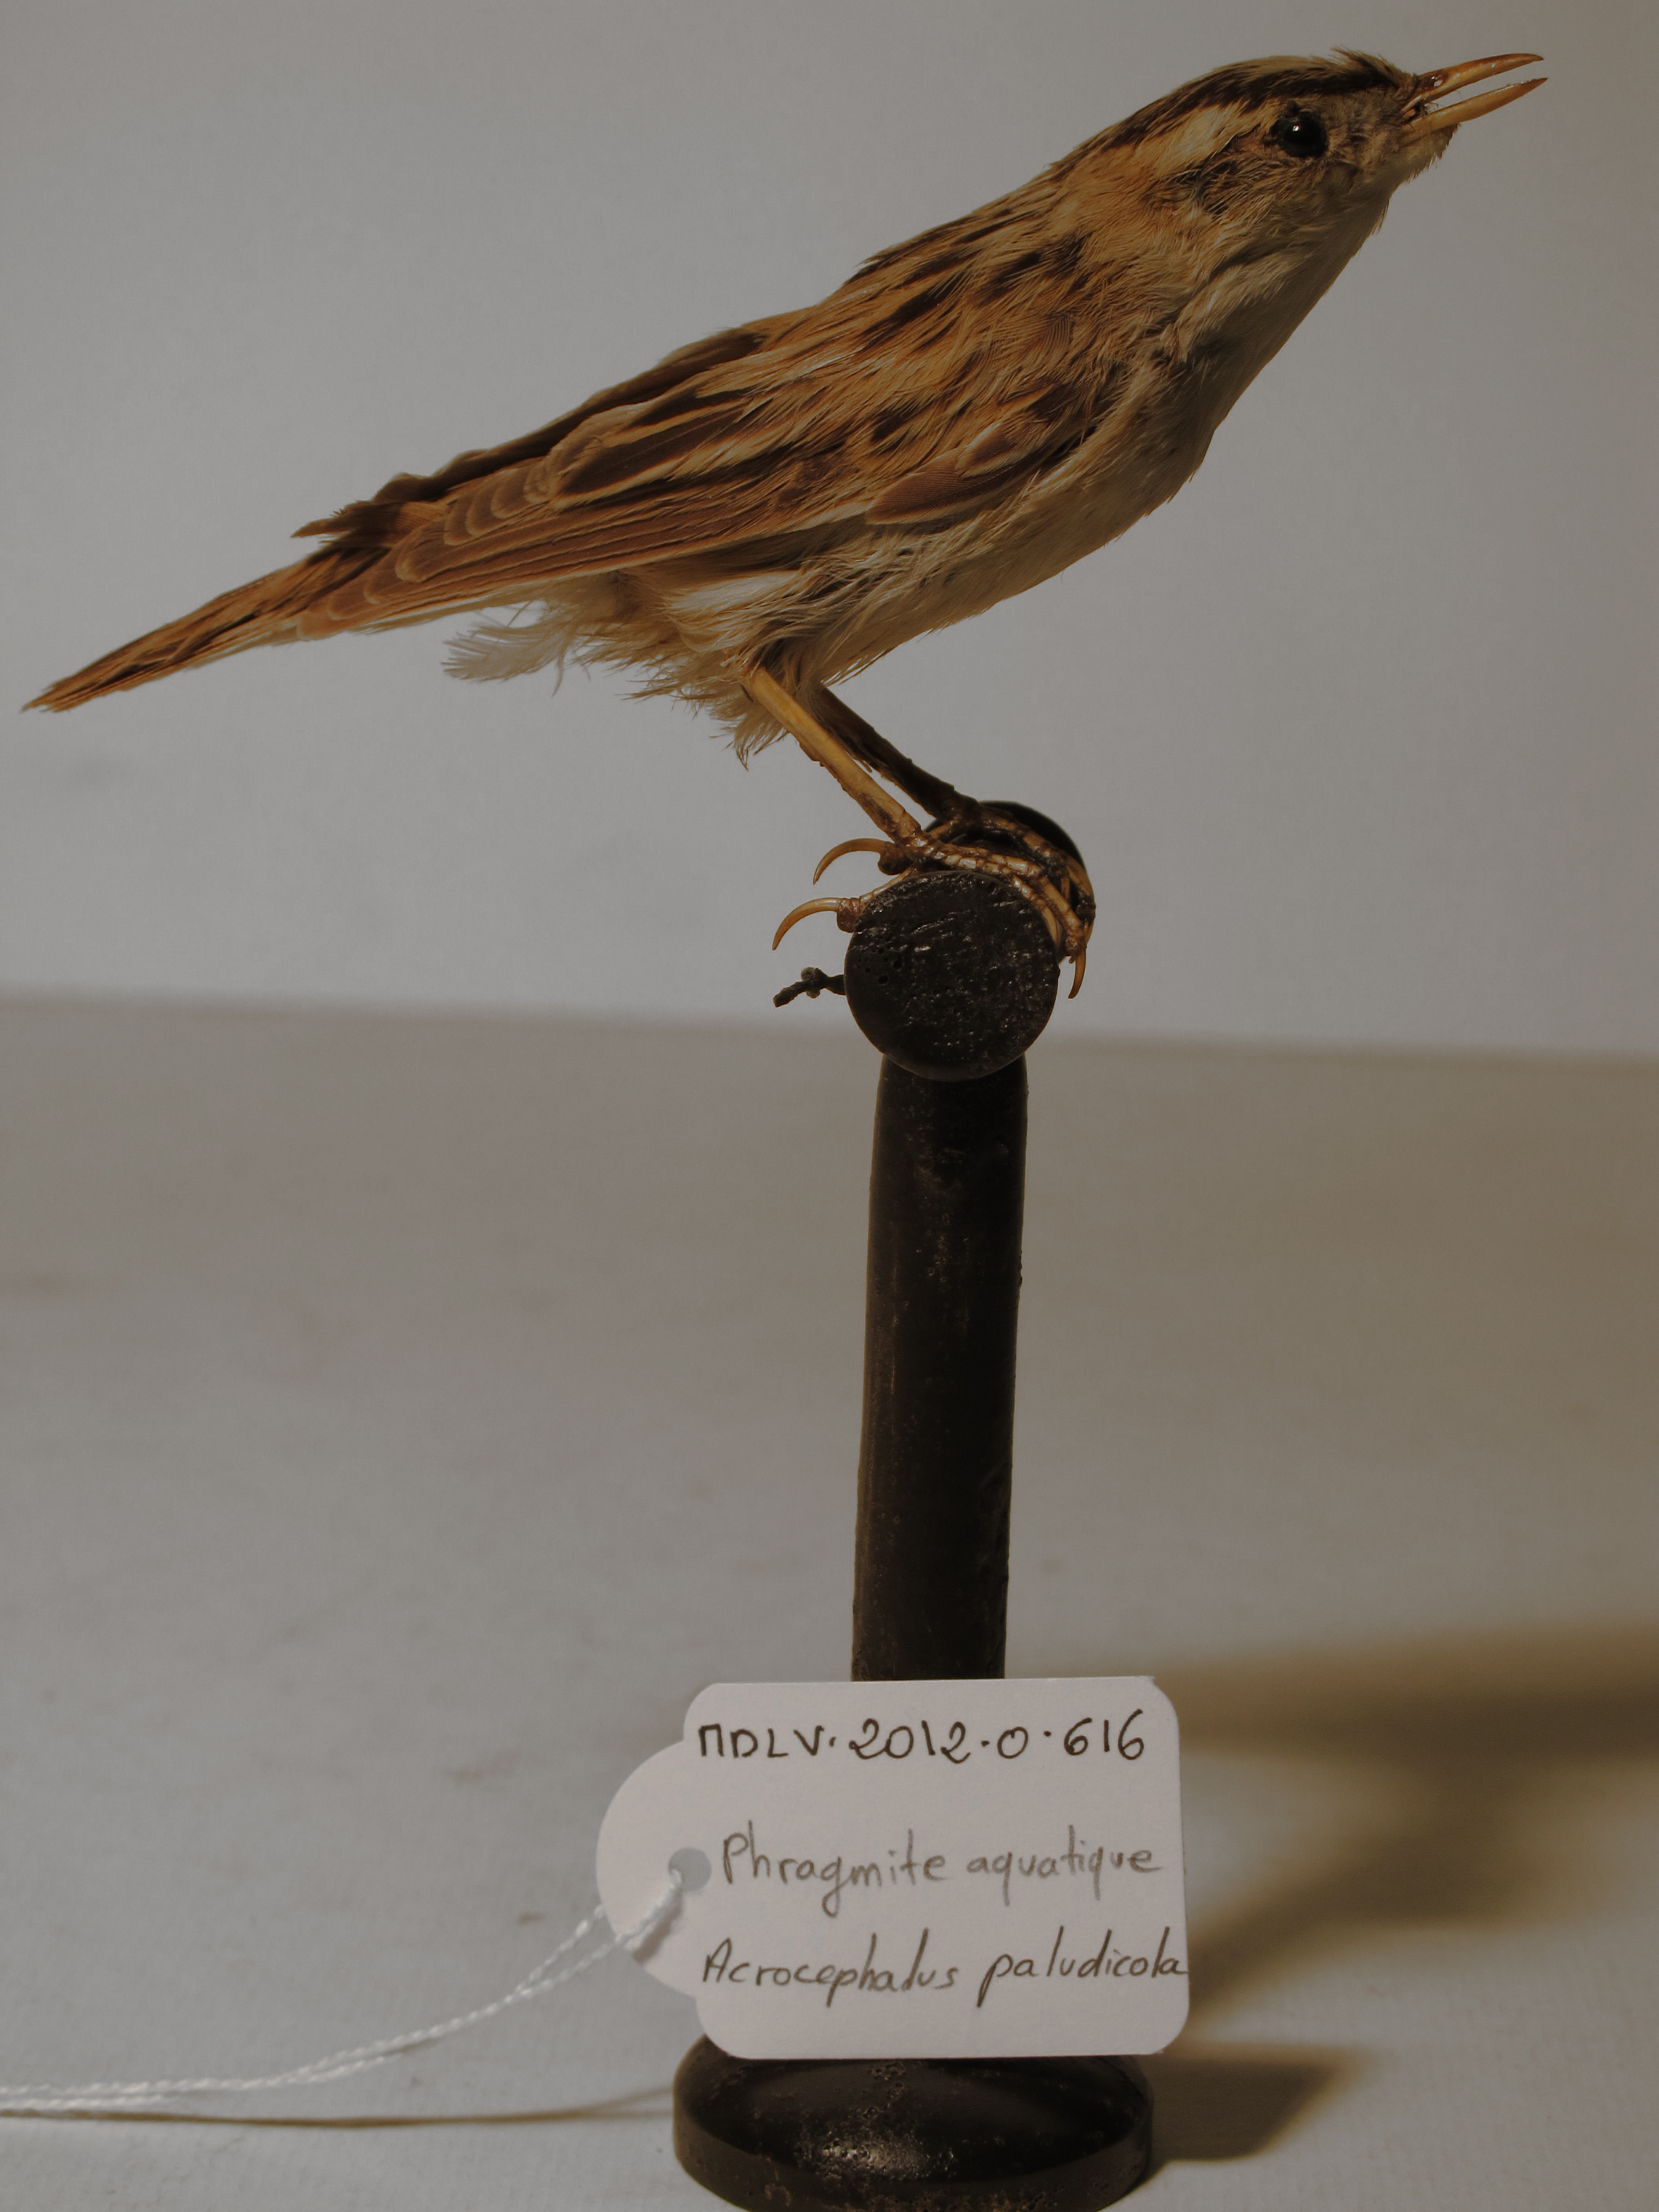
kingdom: Animalia
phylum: Chordata
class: Aves
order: Passeriformes
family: Acrocephalidae
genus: Acrocephalus
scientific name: Acrocephalus paludicola
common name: Aquatic Warbler
